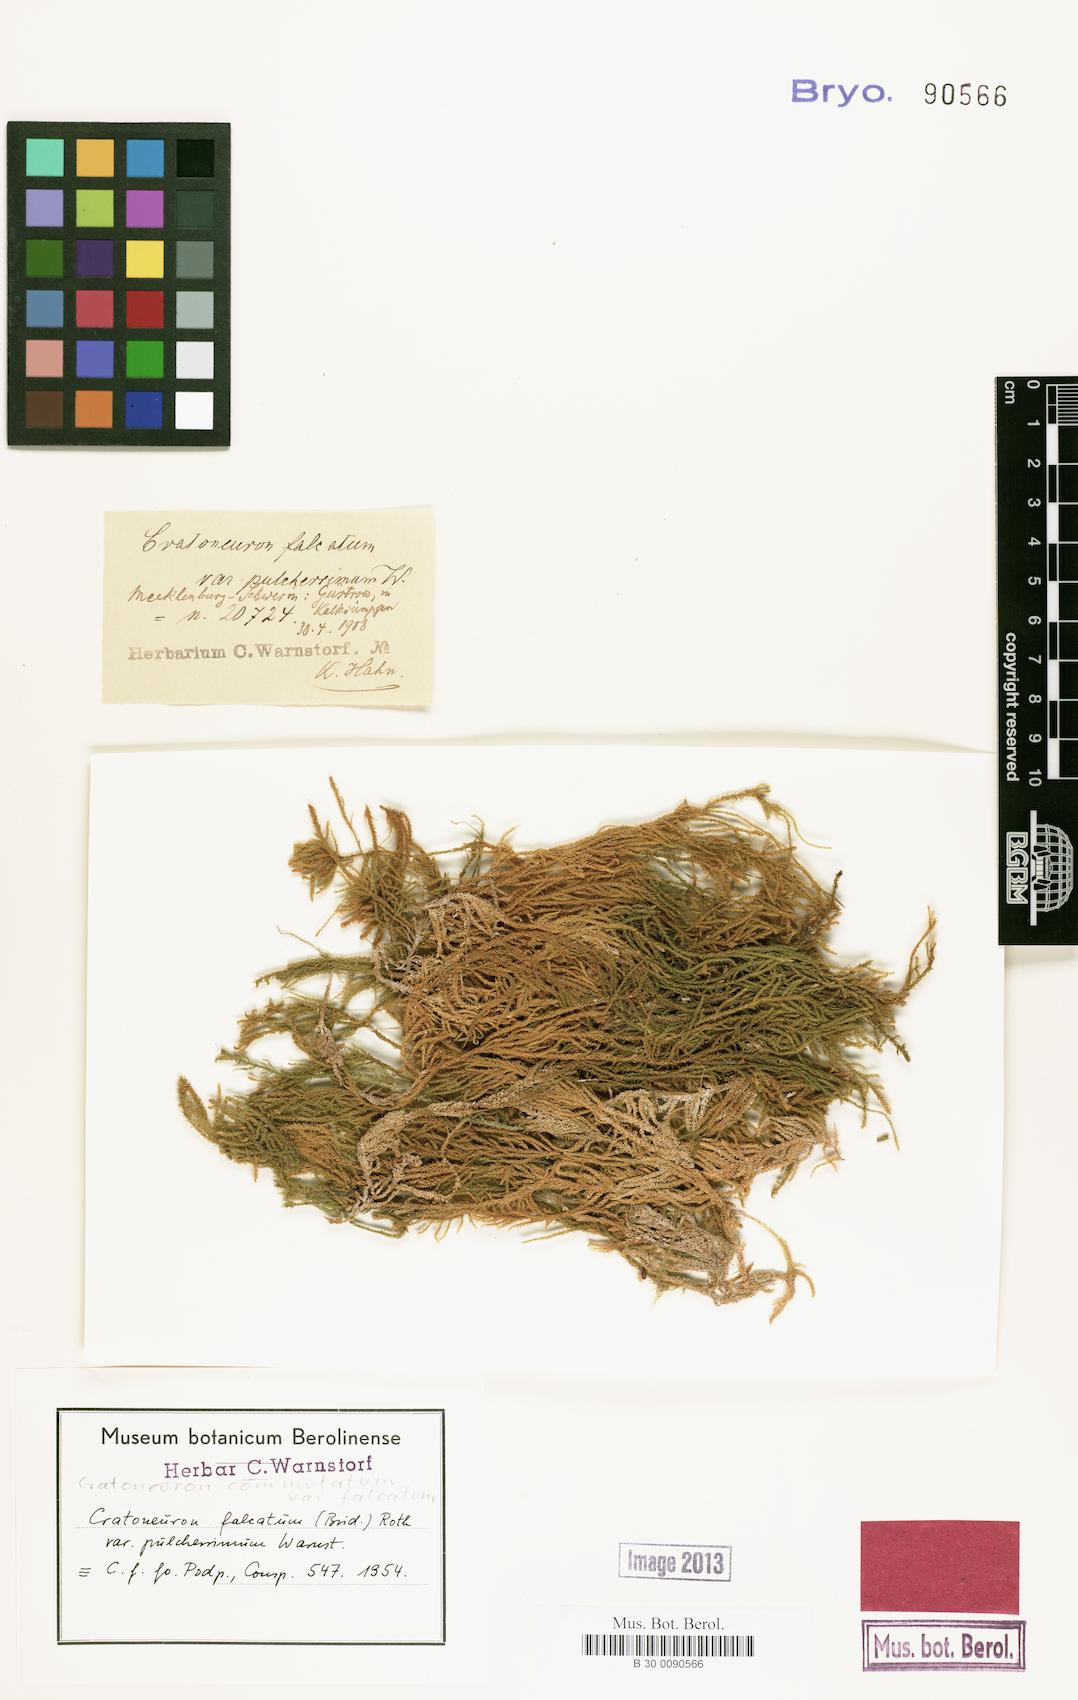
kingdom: Plantae
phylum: Bryophyta
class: Bryopsida
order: Hypnales
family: Amblystegiaceae
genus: Palustriella
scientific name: Palustriella falcata
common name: Curled hook-moss
